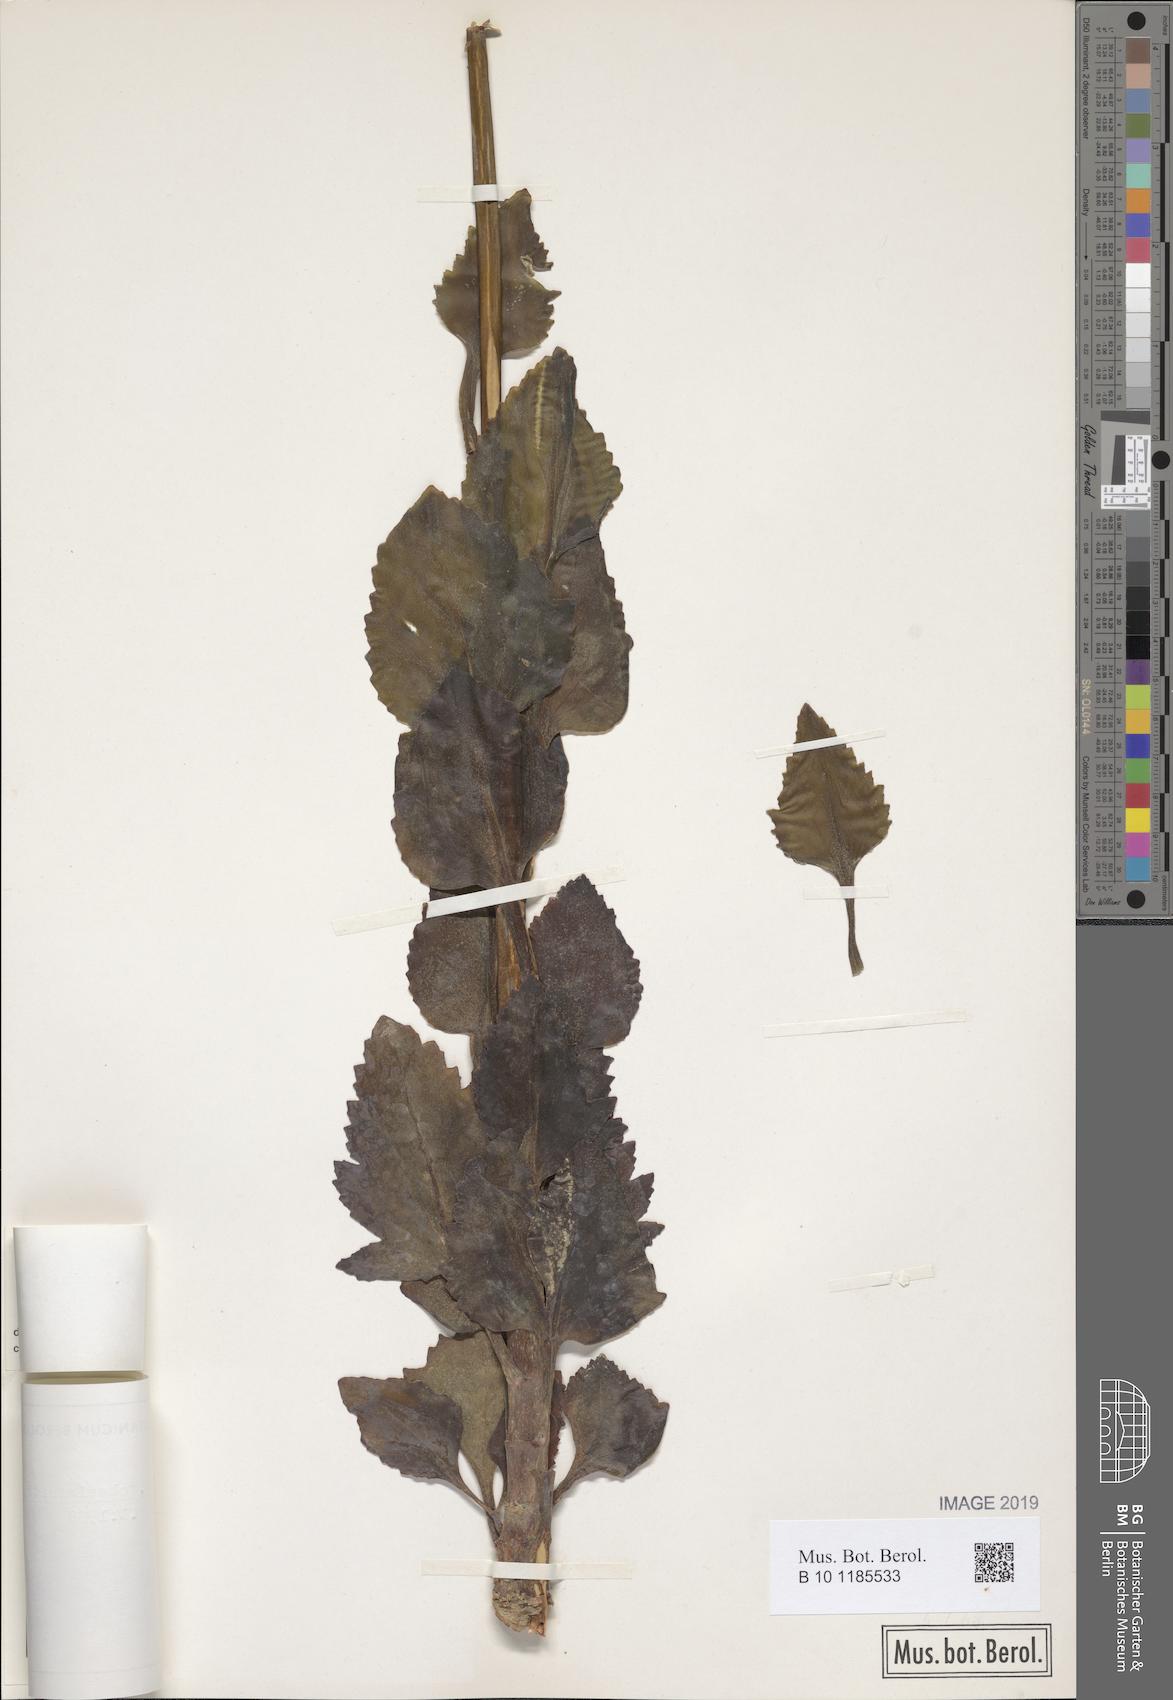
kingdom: Plantae
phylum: Tracheophyta
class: Magnoliopsida
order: Saxifragales
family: Crassulaceae
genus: Kalanchoe
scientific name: Kalanchoe laciniata
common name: Christmastree plant
